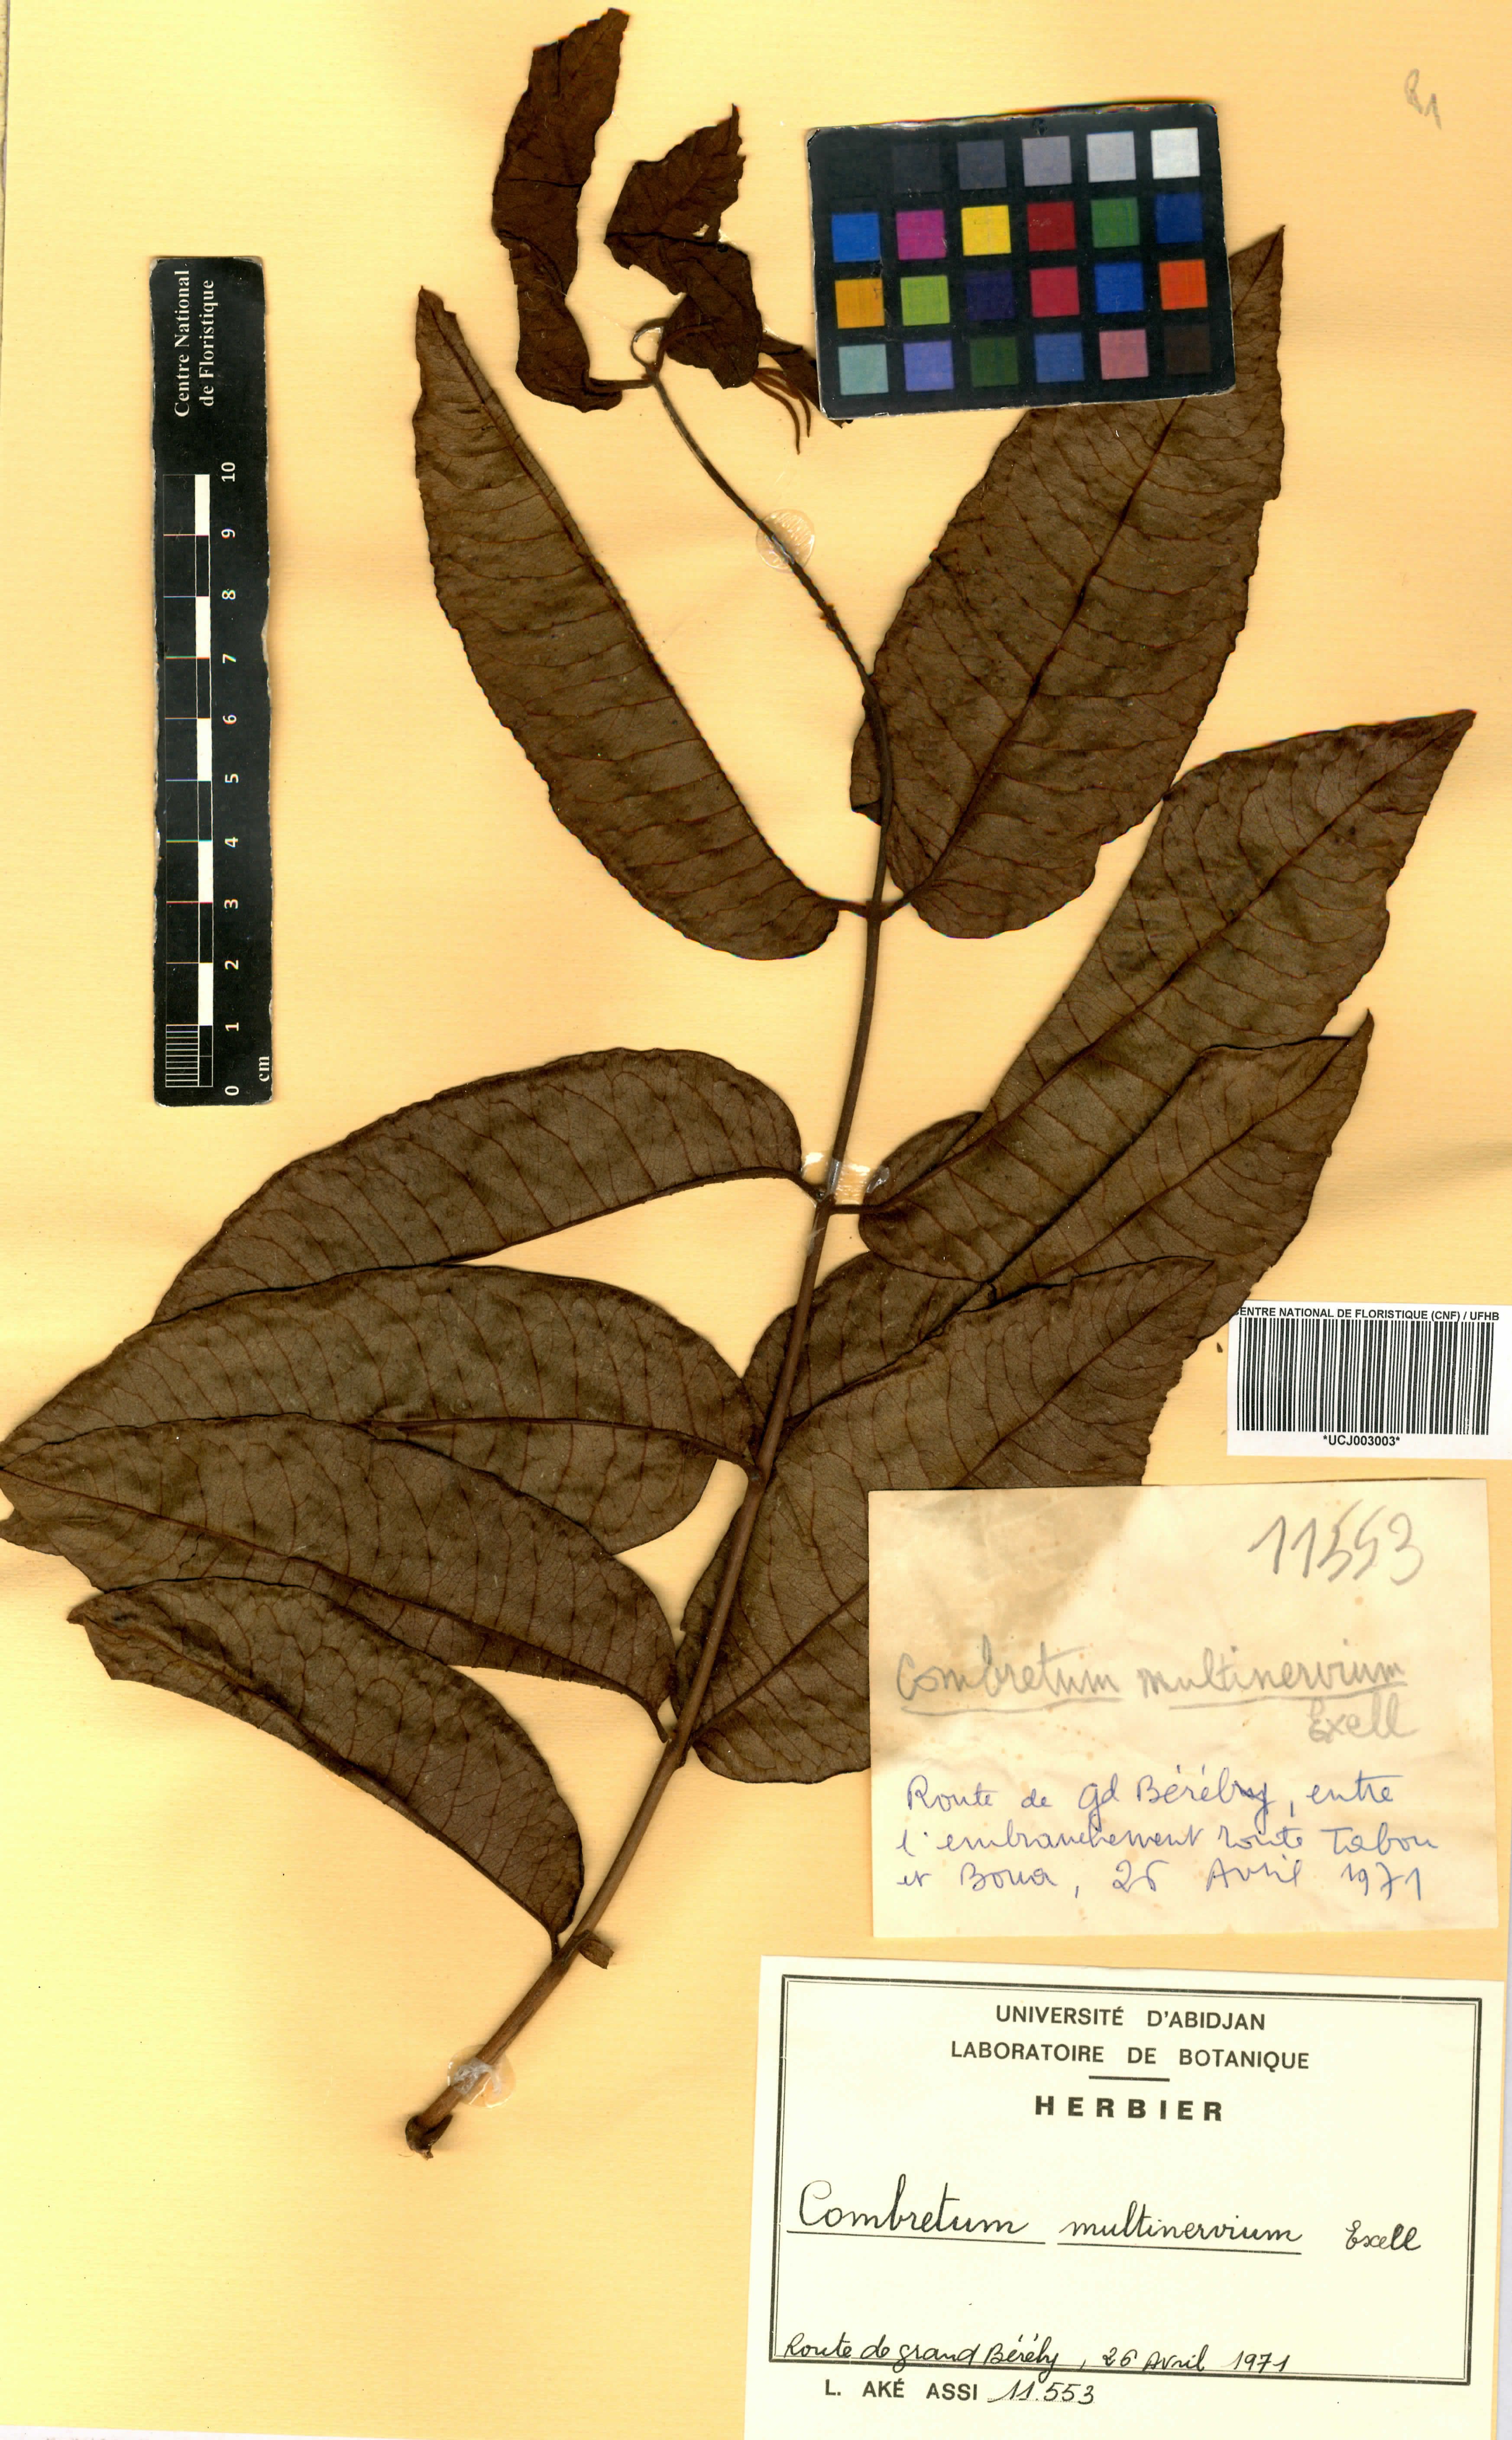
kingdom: Plantae
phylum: Tracheophyta
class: Magnoliopsida
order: Myrtales
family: Combretaceae
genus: Combretum
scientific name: Combretum multinervium
